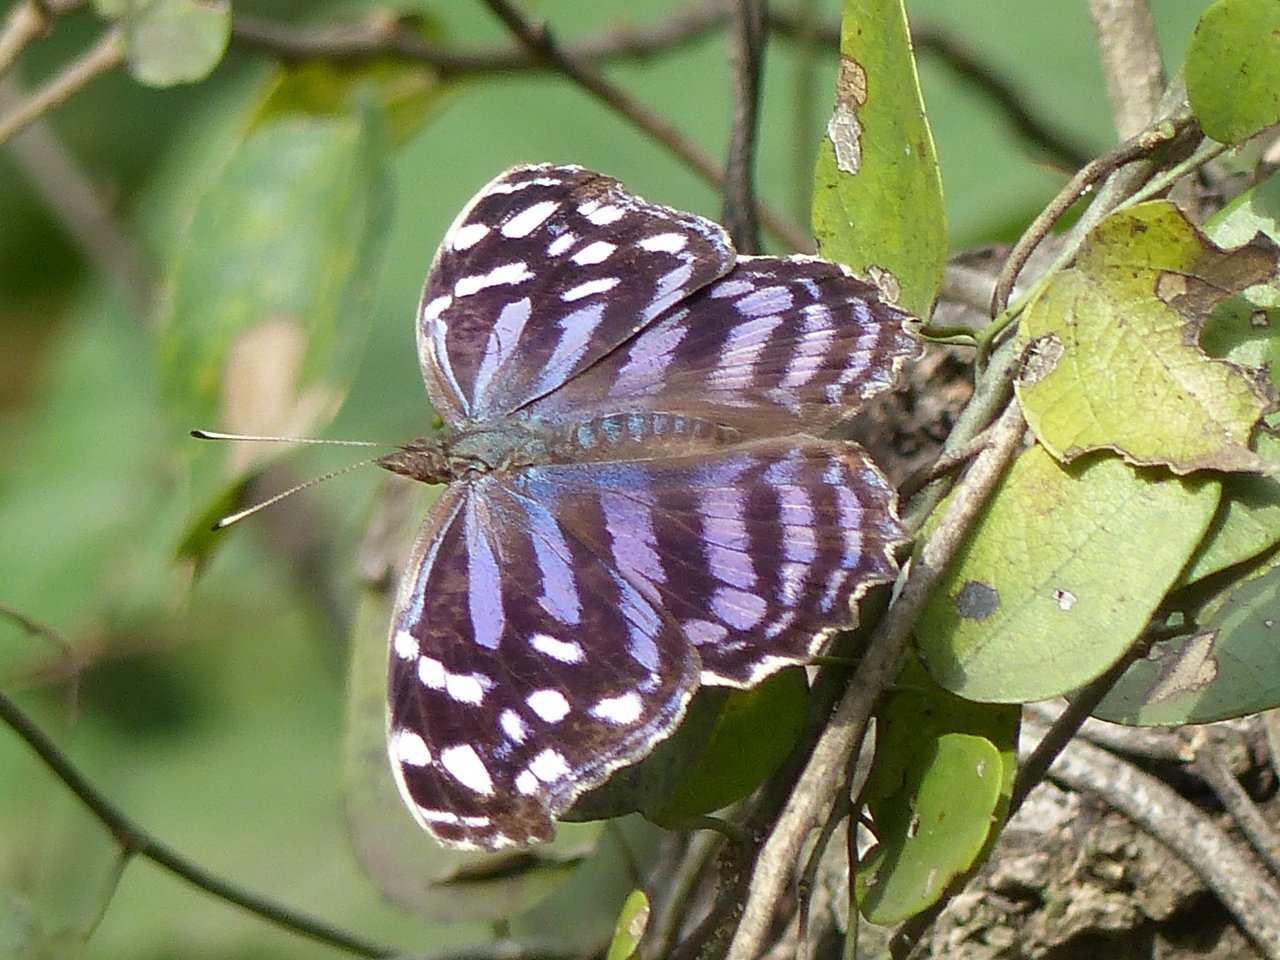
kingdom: Animalia
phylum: Arthropoda
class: Insecta
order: Lepidoptera
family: Nymphalidae
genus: Myscelia
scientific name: Myscelia ethusa
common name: Mexican Bluewing
